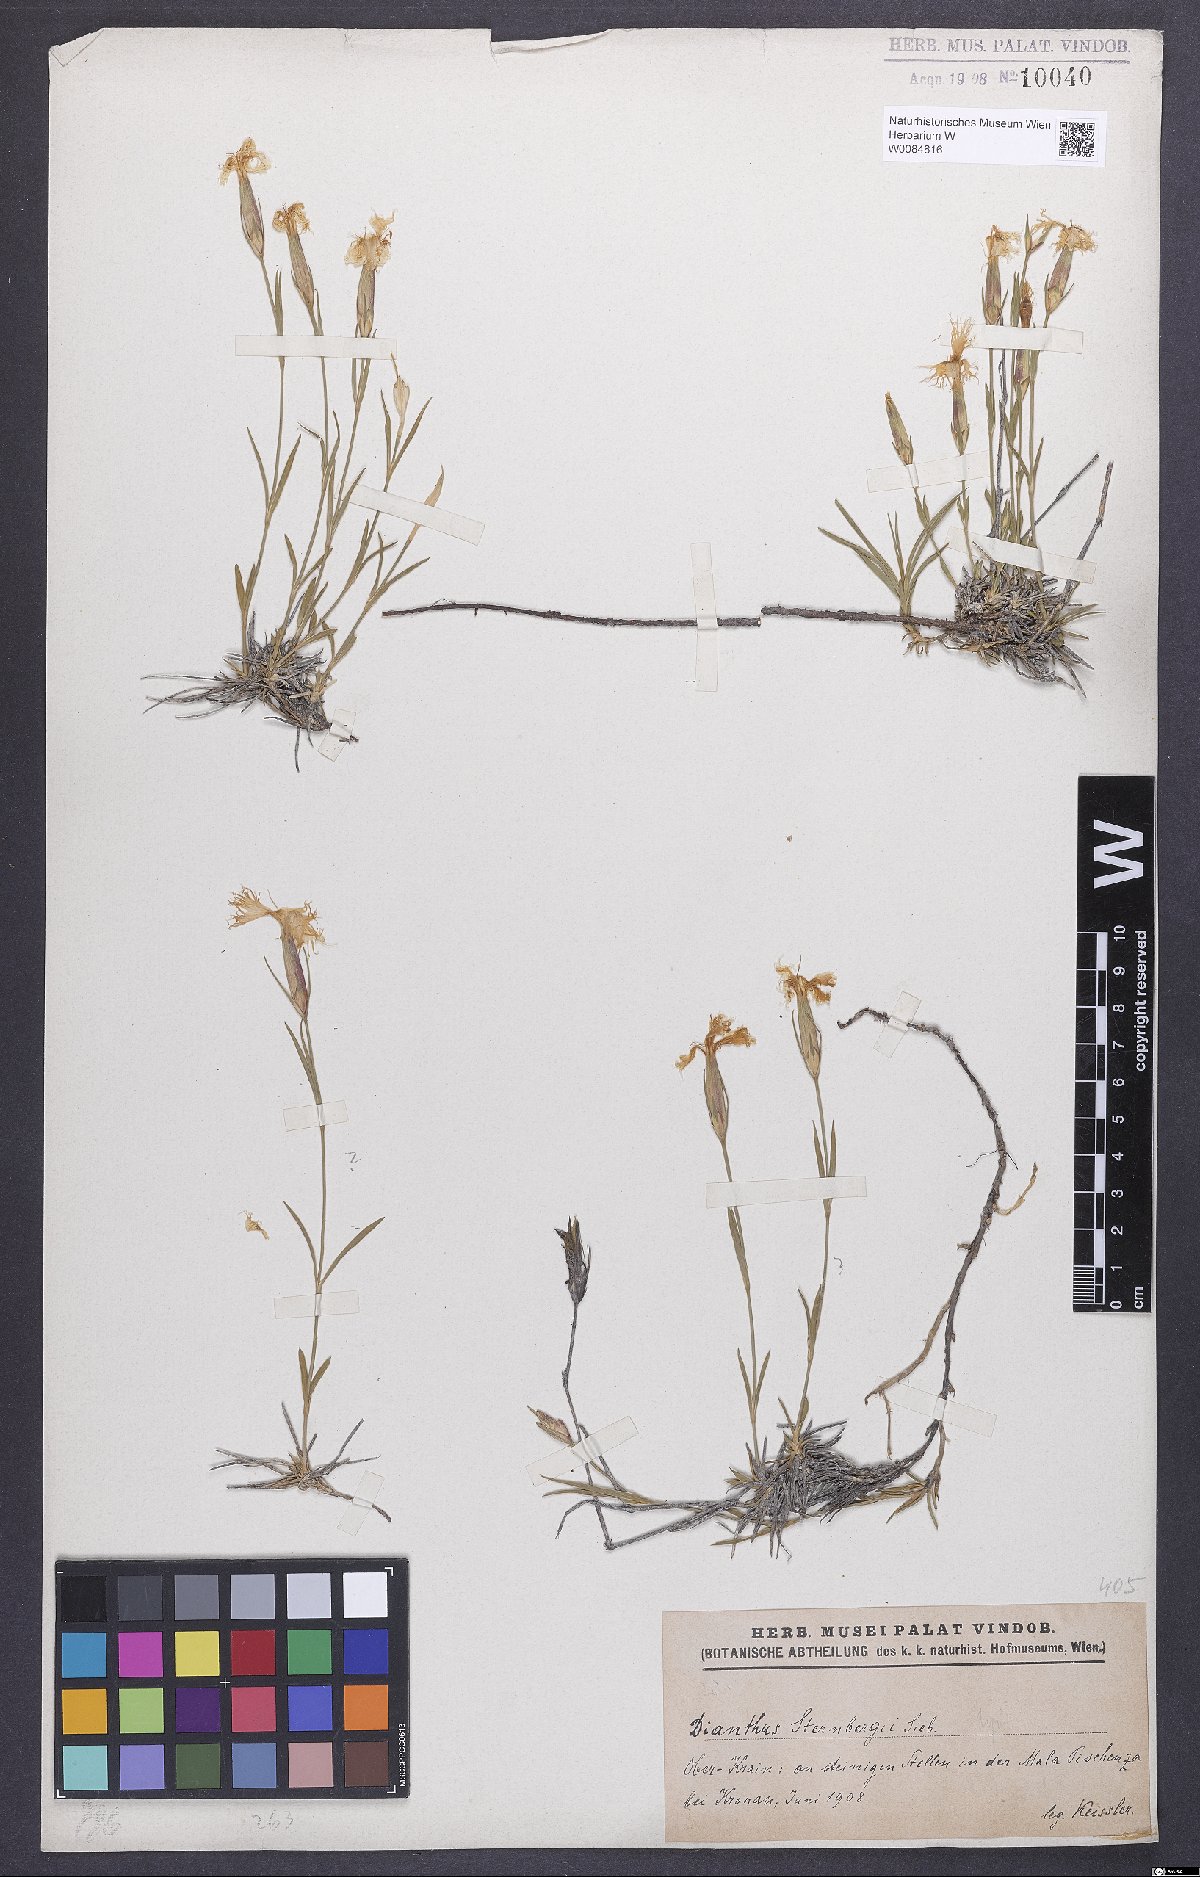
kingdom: Plantae
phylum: Tracheophyta
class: Magnoliopsida
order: Caryophyllales
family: Caryophyllaceae
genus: Dianthus
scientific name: Dianthus monspessulanus
